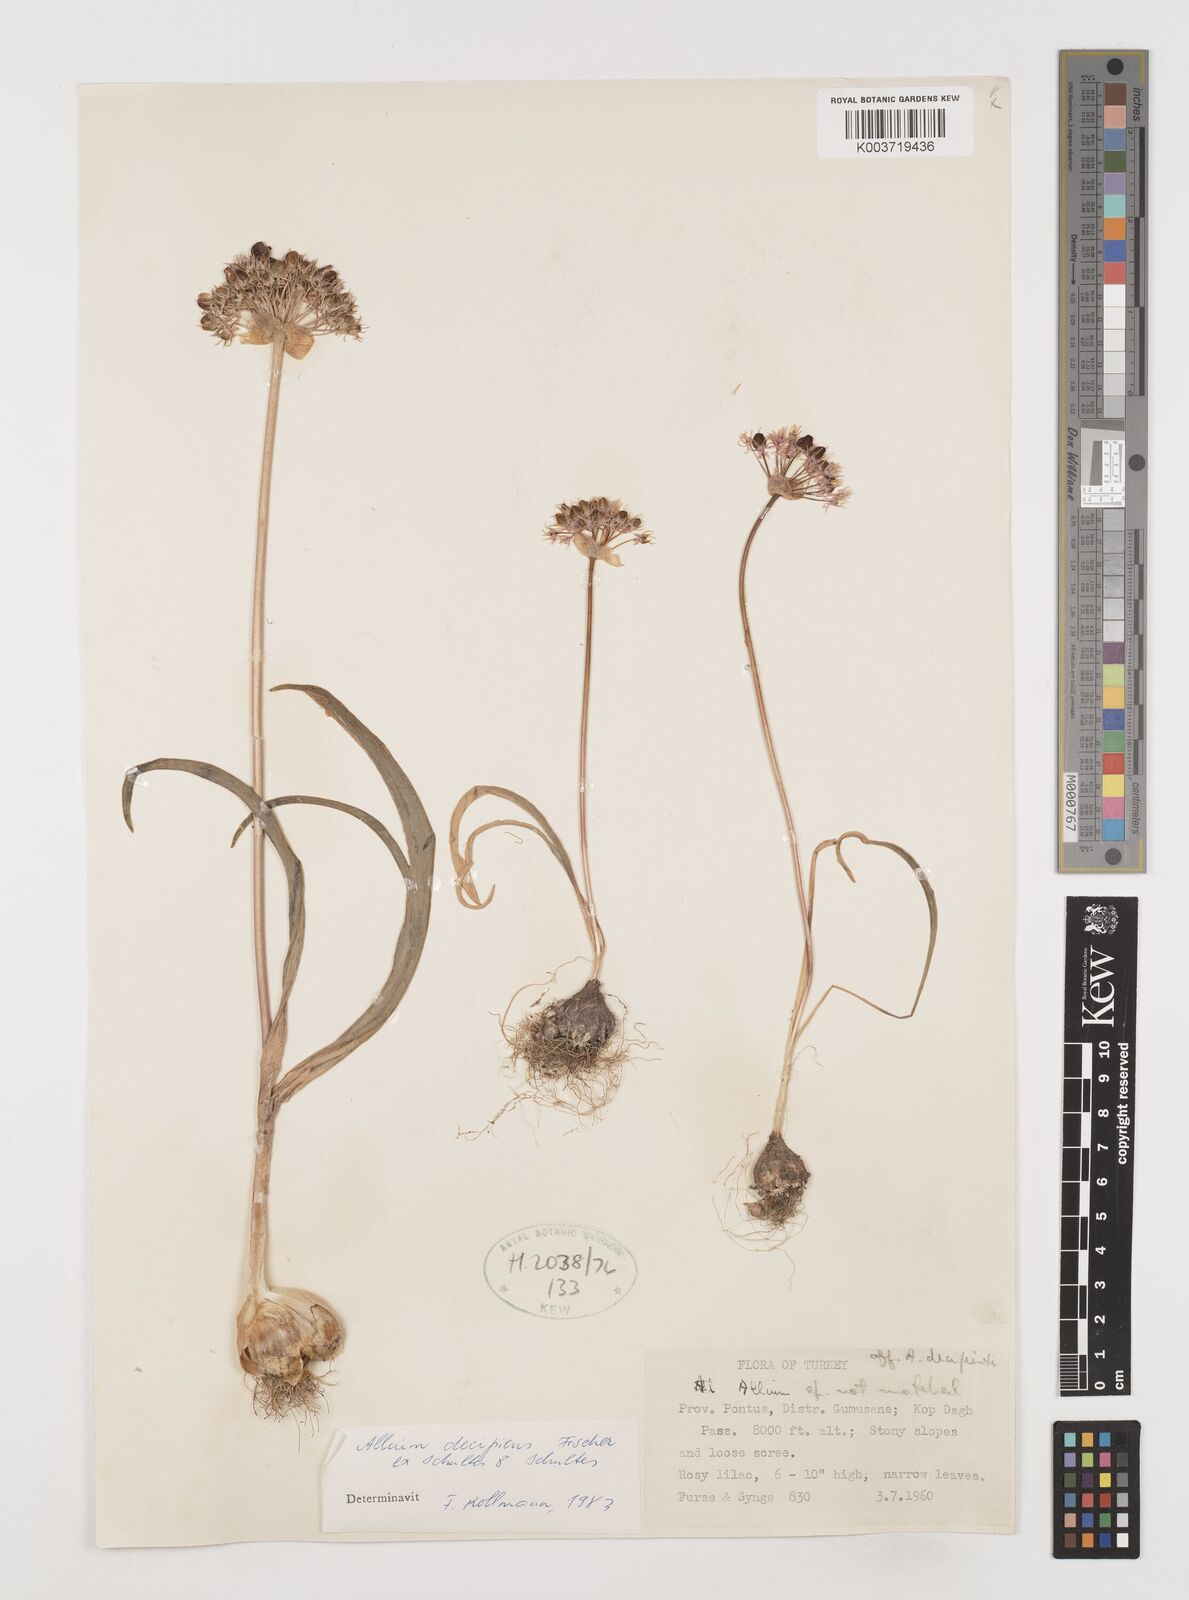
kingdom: Plantae
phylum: Tracheophyta
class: Liliopsida
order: Asparagales
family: Amaryllidaceae
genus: Allium
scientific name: Allium decipiens
